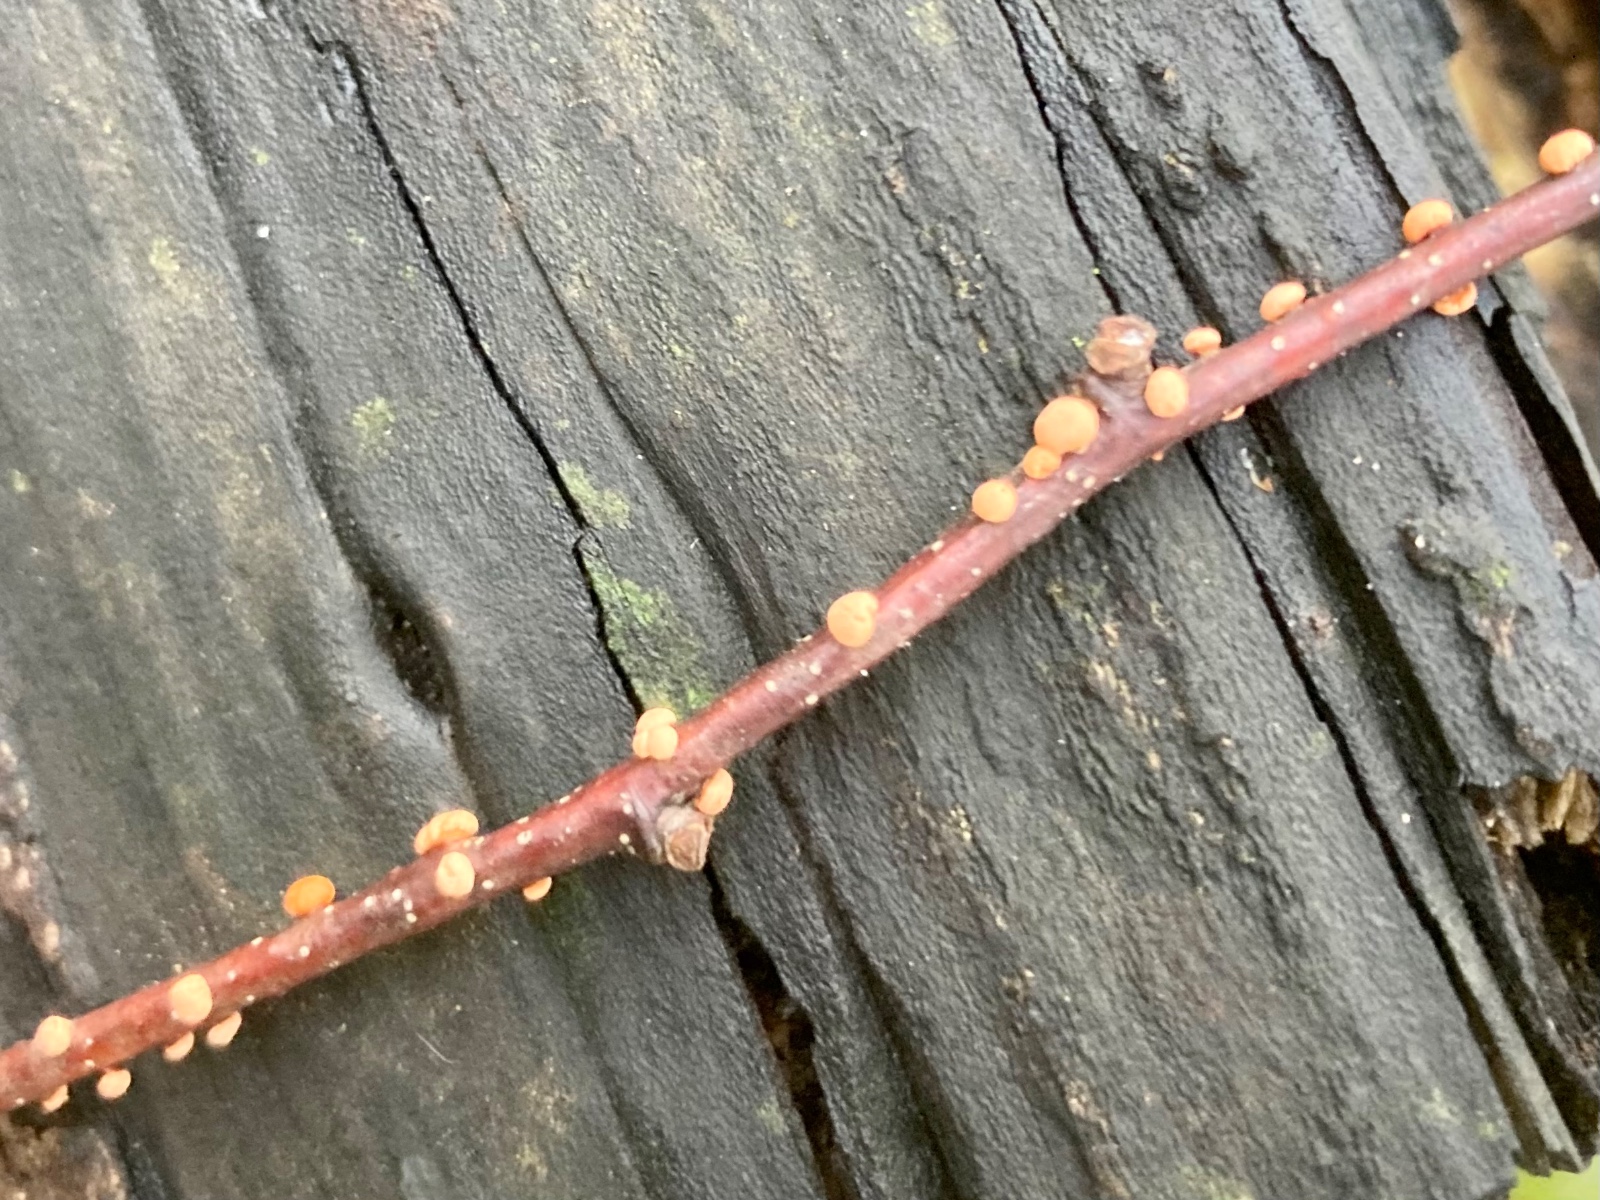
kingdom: Fungi
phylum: Ascomycota
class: Sordariomycetes
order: Hypocreales
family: Nectriaceae
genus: Nectria
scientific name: Nectria cinnabarina
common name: almindelig cinnobersvamp
